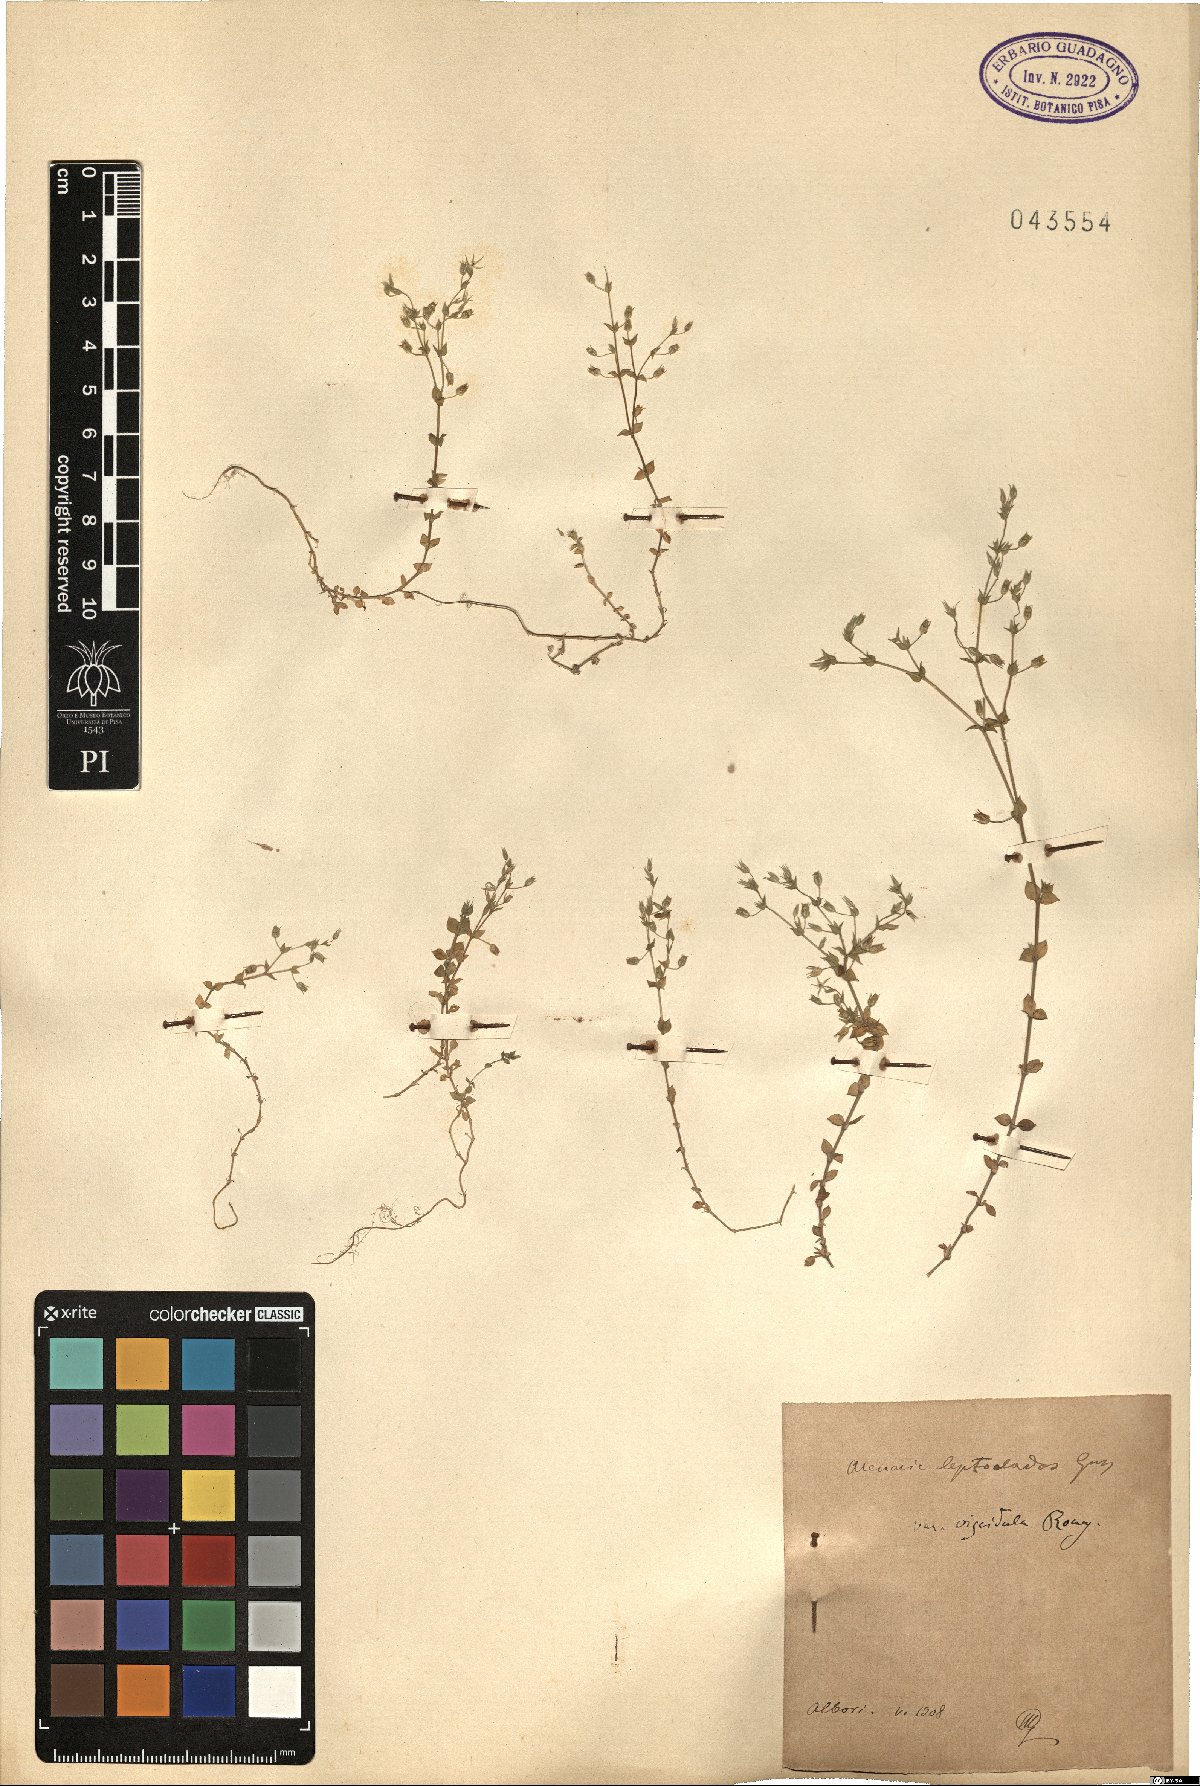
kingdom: Plantae
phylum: Tracheophyta
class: Magnoliopsida
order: Caryophyllales
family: Caryophyllaceae
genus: Arenaria
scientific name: Arenaria leptoclados
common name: Thyme-leaved sandwort
